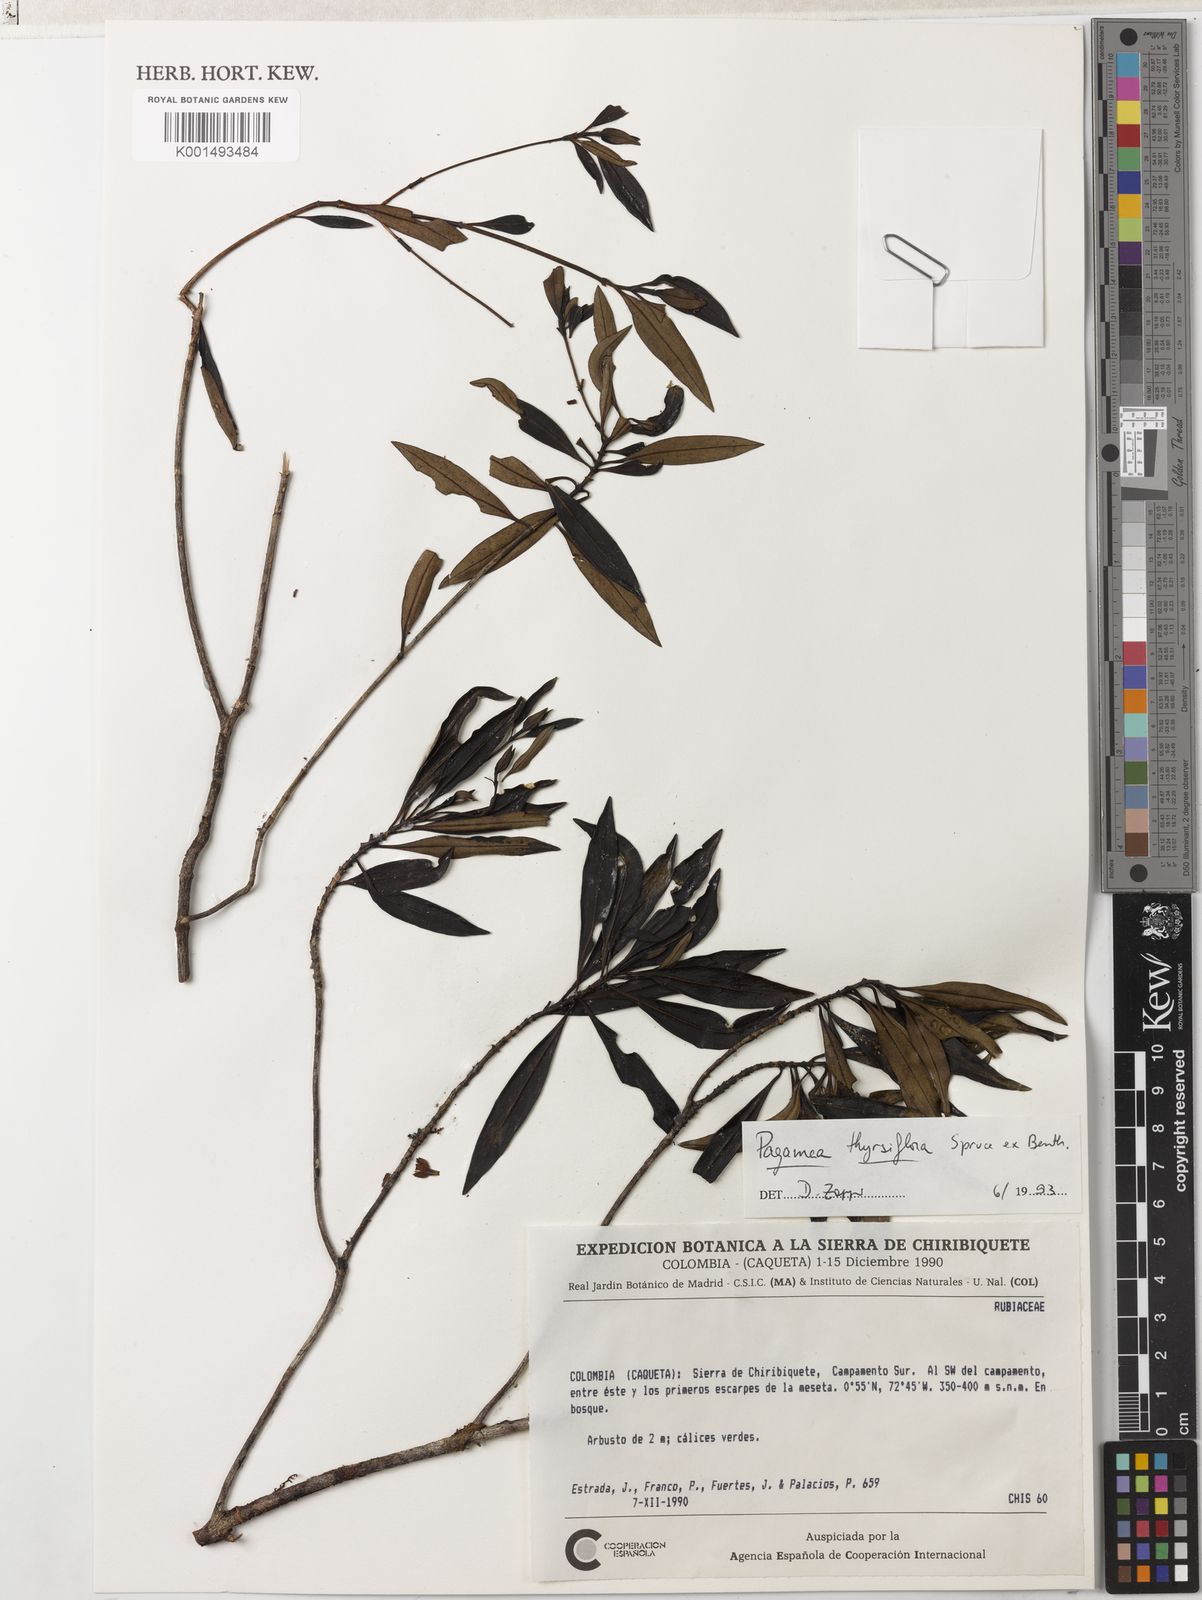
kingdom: Plantae
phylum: Tracheophyta
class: Magnoliopsida
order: Gentianales
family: Rubiaceae
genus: Pagamea
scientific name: Pagamea thyrsiflora
